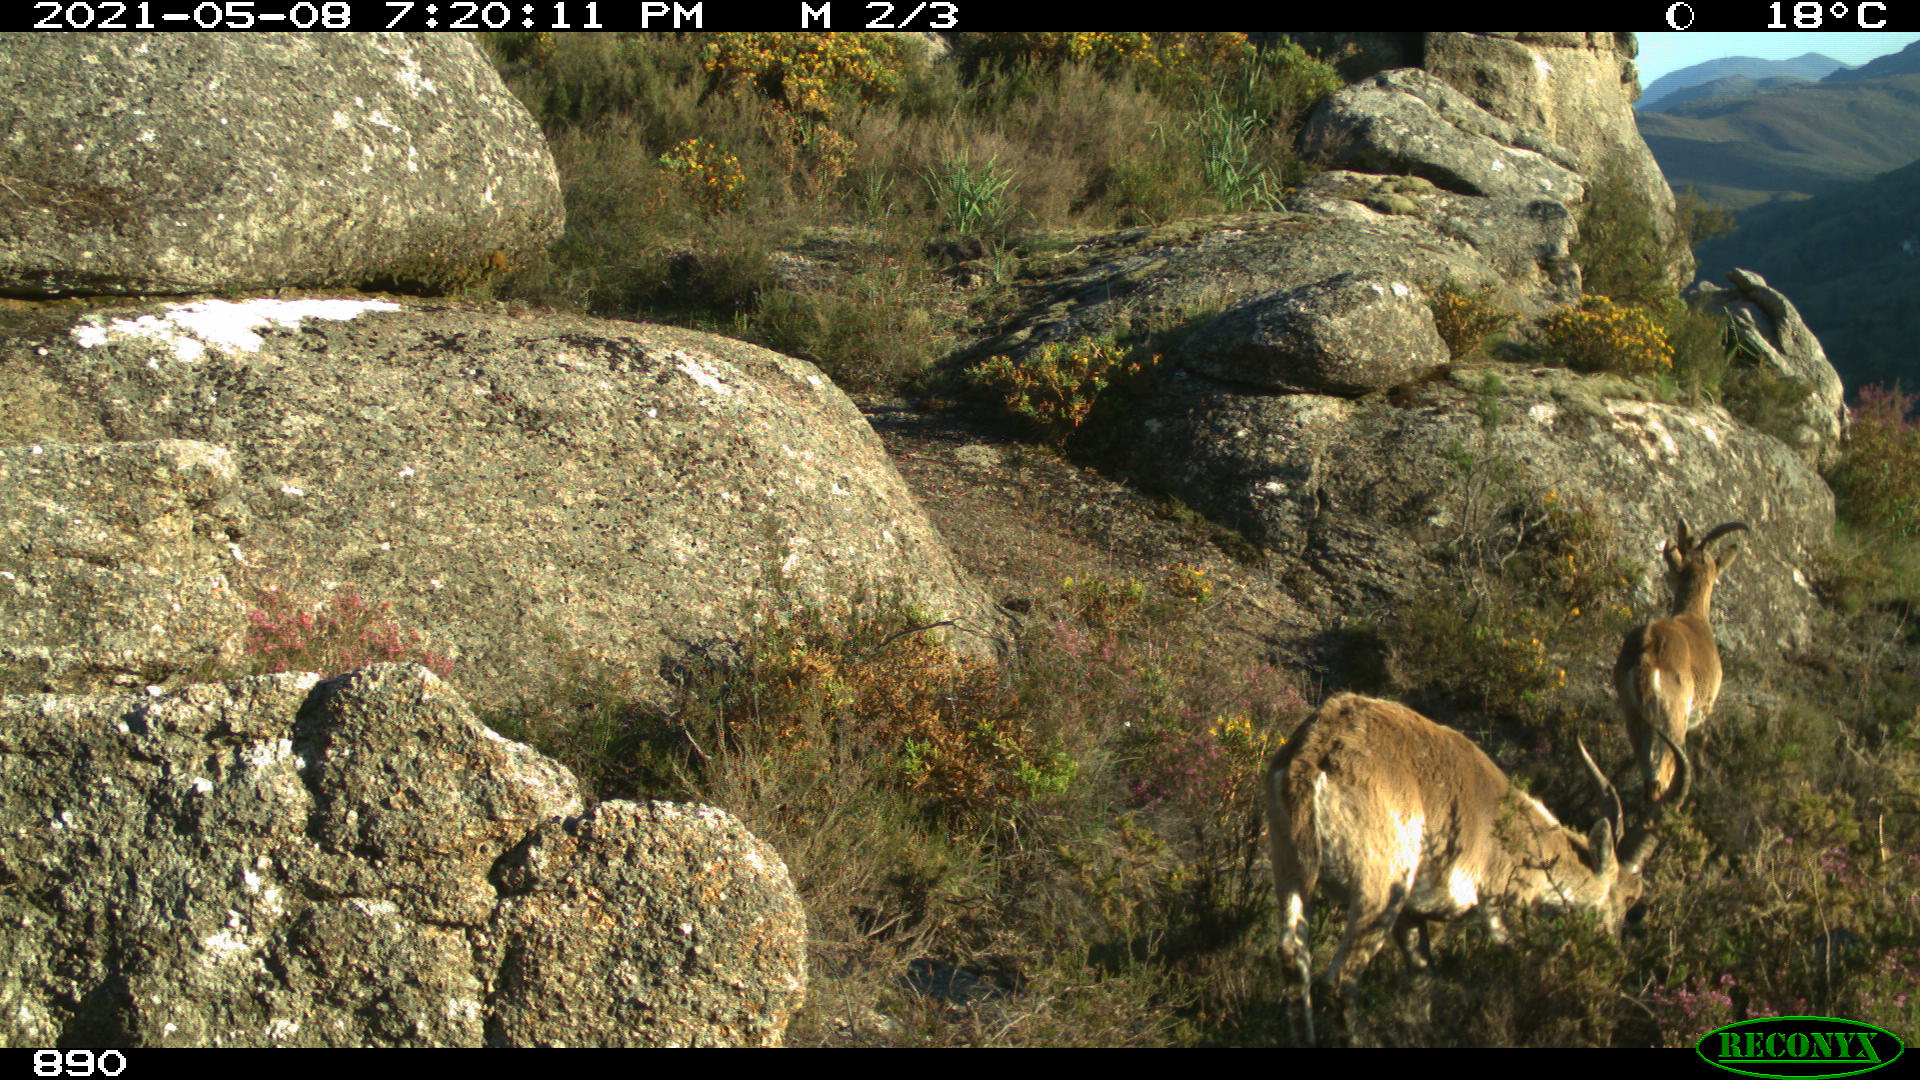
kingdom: Animalia
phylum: Chordata
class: Mammalia
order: Artiodactyla
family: Bovidae
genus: Capra
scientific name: Capra pyrenaica
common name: Spanish ibex
